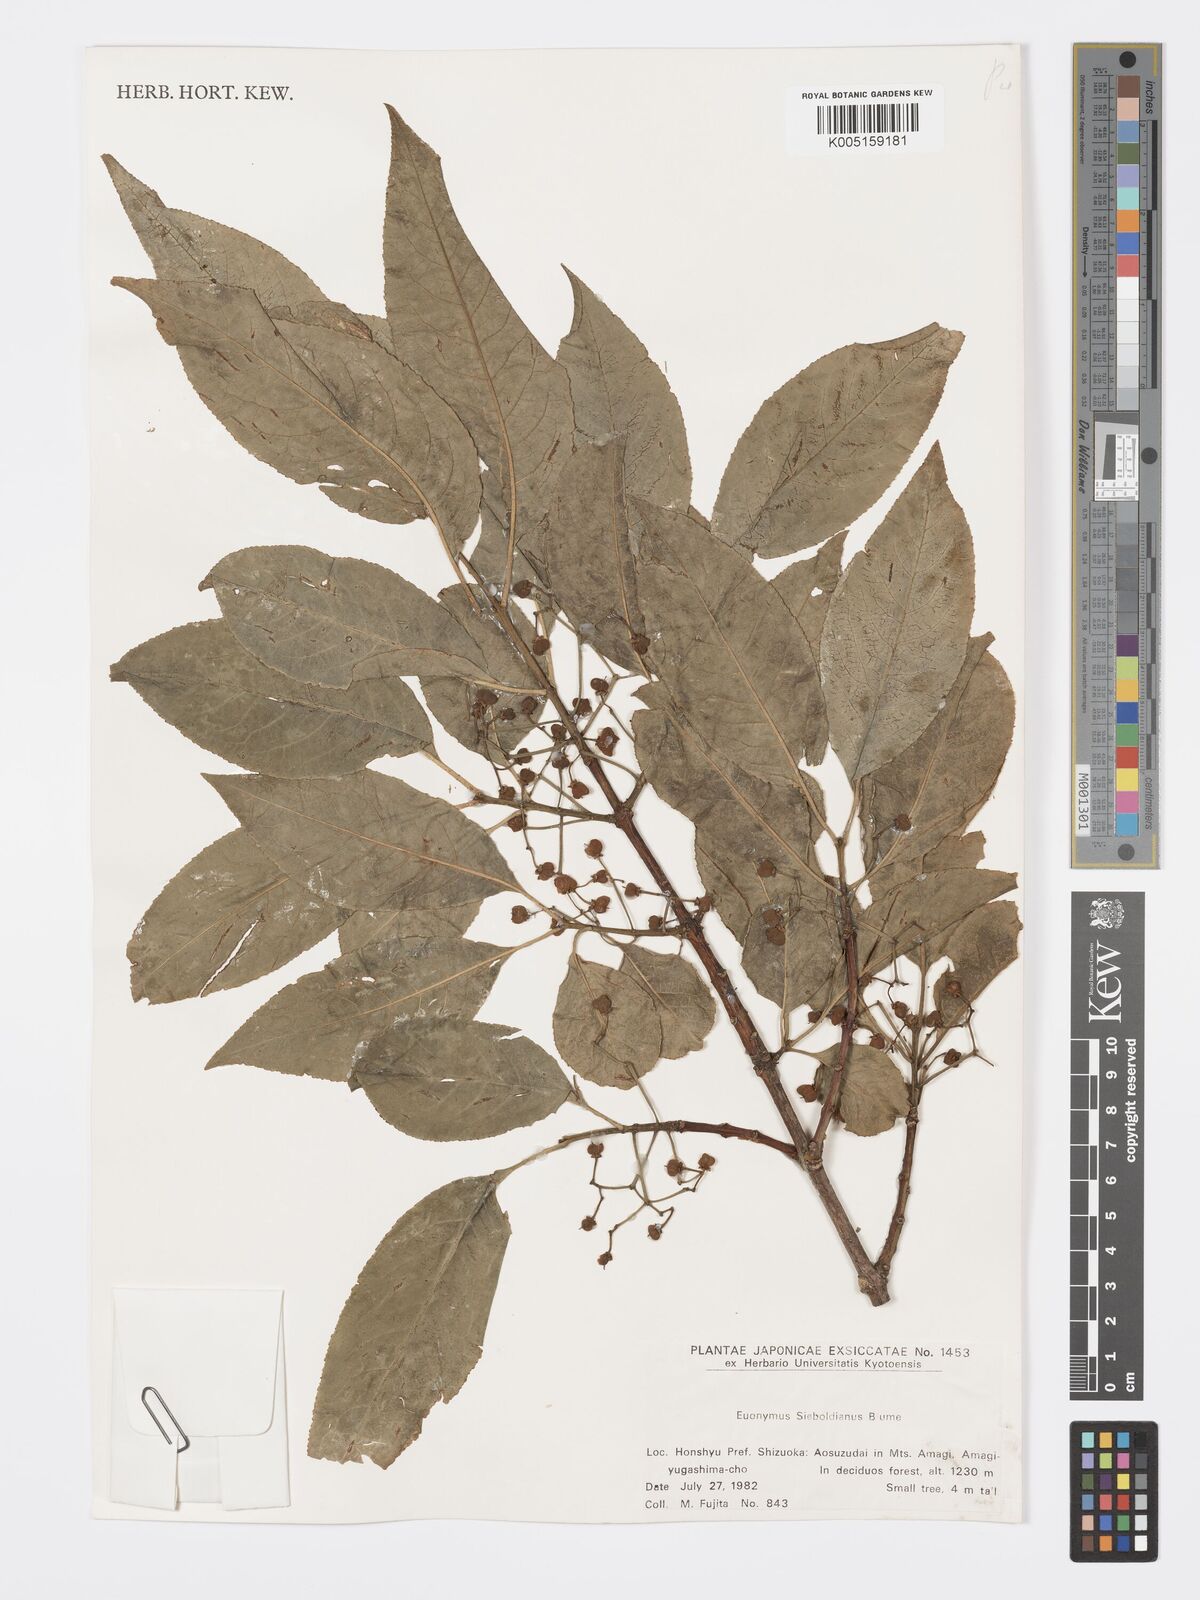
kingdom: Plantae
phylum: Tracheophyta
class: Magnoliopsida
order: Celastrales
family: Celastraceae
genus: Euonymus
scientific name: Euonymus hamiltonianus
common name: Hamilton's spindletree
